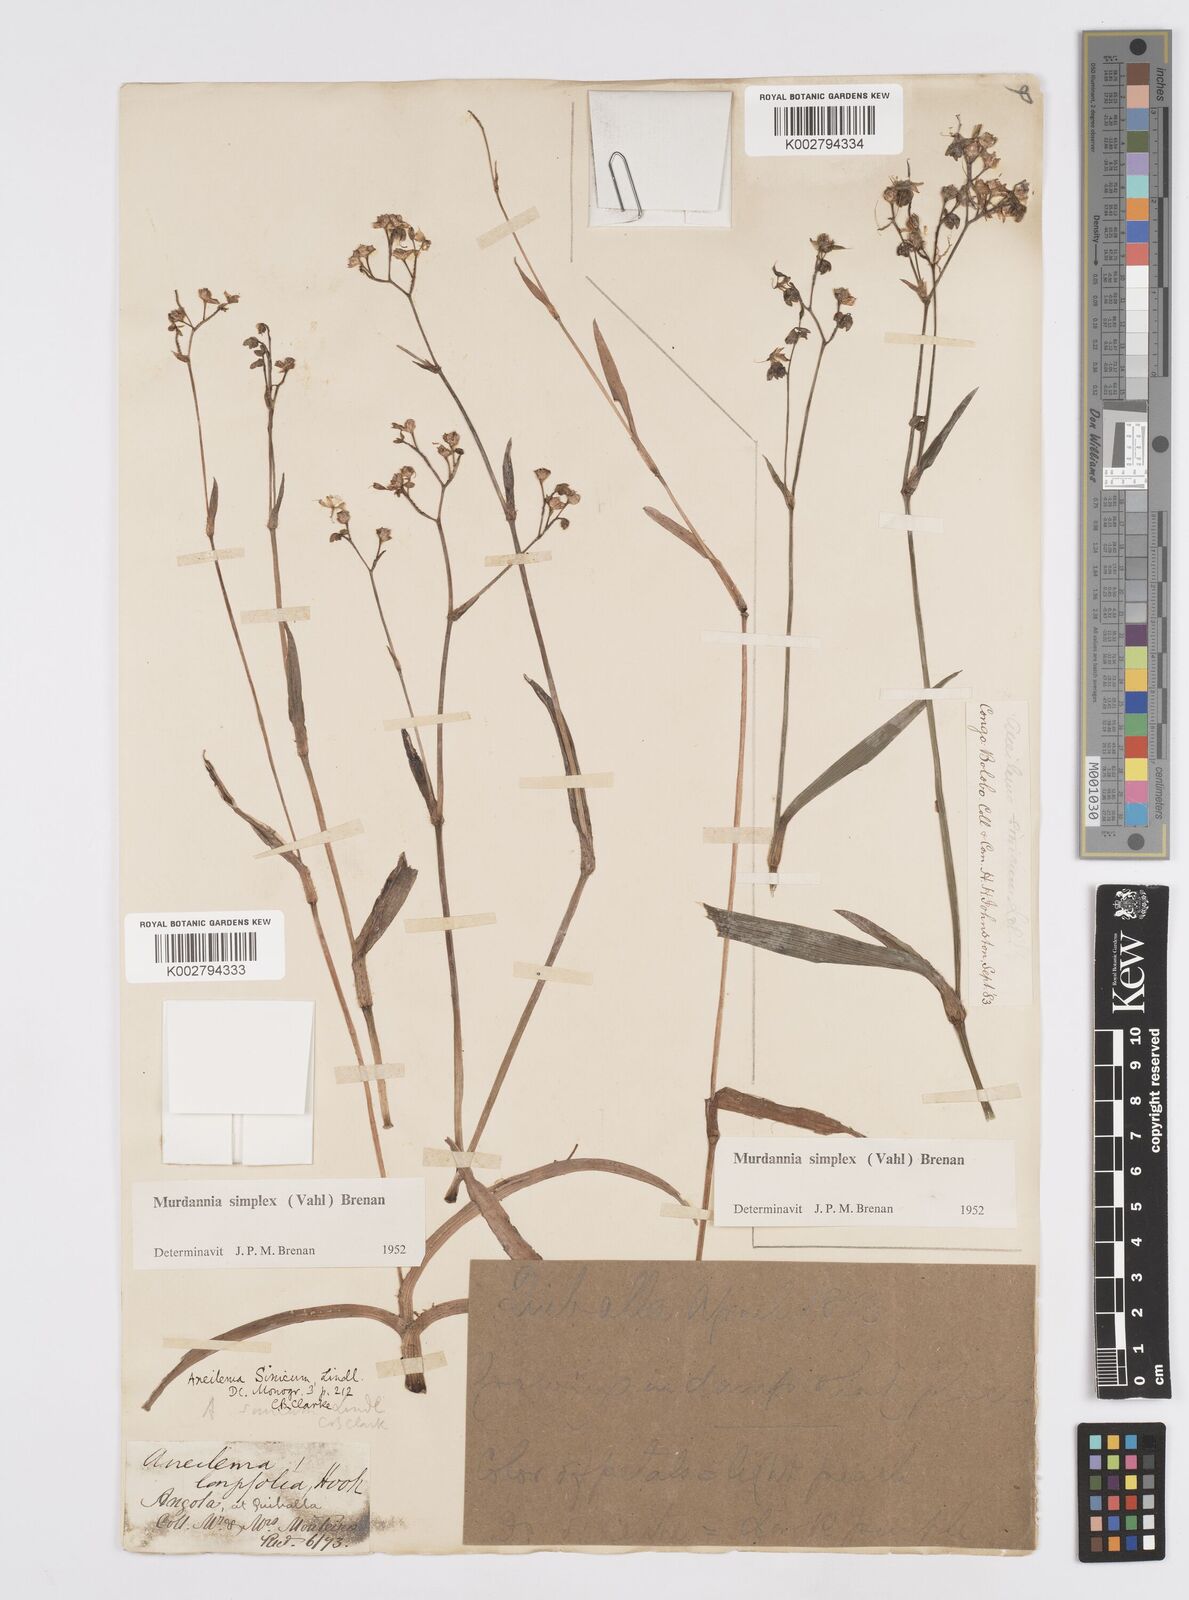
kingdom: Plantae
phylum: Tracheophyta
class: Liliopsida
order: Commelinales
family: Commelinaceae
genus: Murdannia
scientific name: Murdannia simplex
